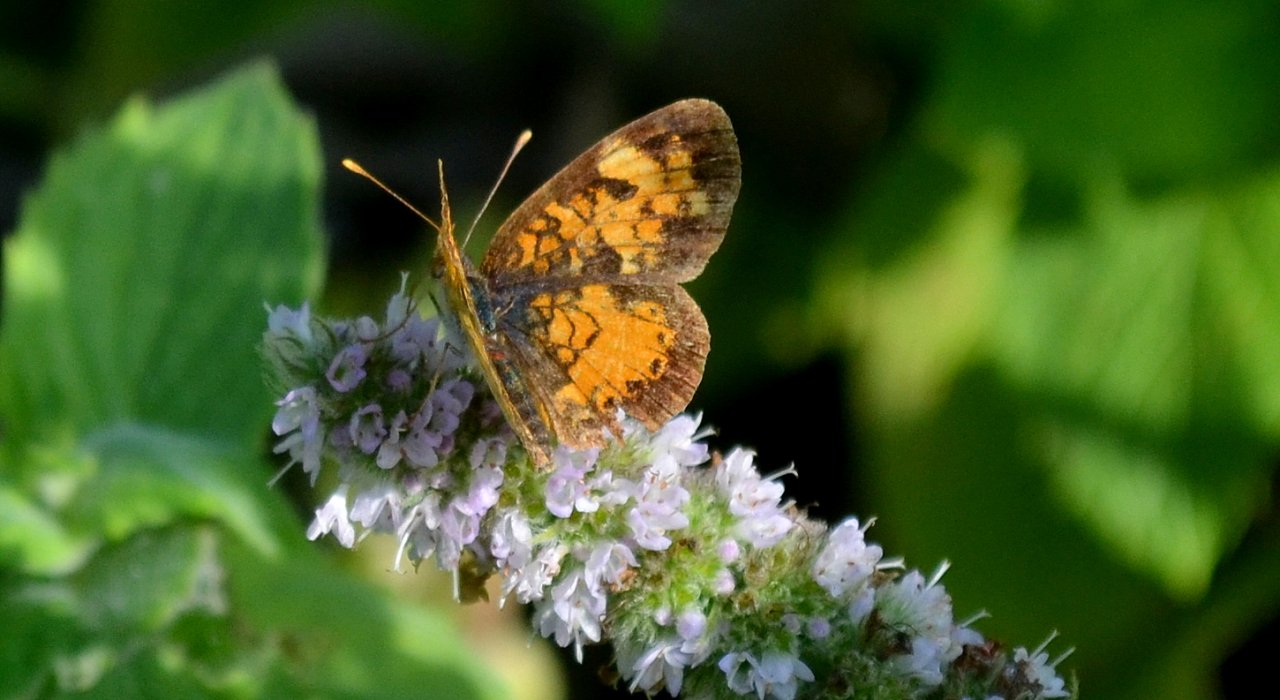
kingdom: Animalia
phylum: Arthropoda
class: Insecta
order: Lepidoptera
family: Nymphalidae
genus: Phyciodes
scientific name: Phyciodes tharos
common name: Northern Crescent
